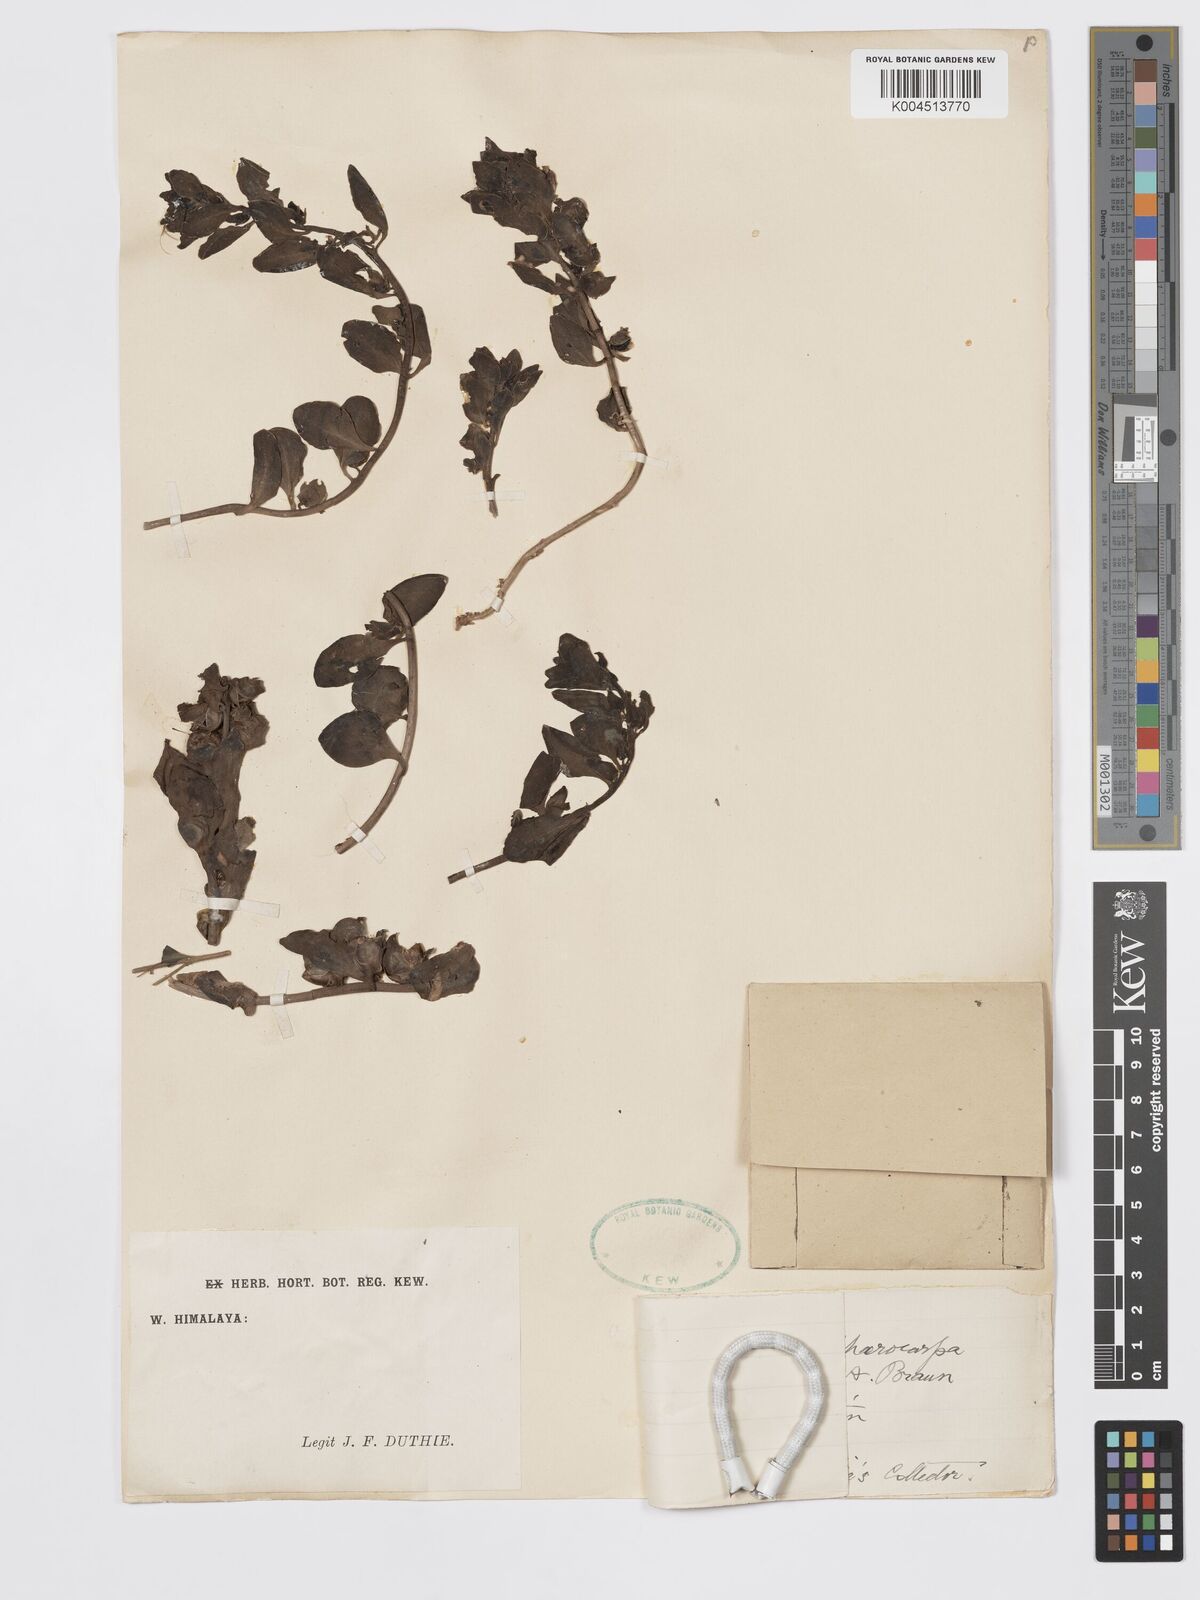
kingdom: Plantae
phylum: Tracheophyta
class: Magnoliopsida
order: Lamiales
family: Plantaginaceae
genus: Schweinfurthia
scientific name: Schweinfurthia papilionacea
